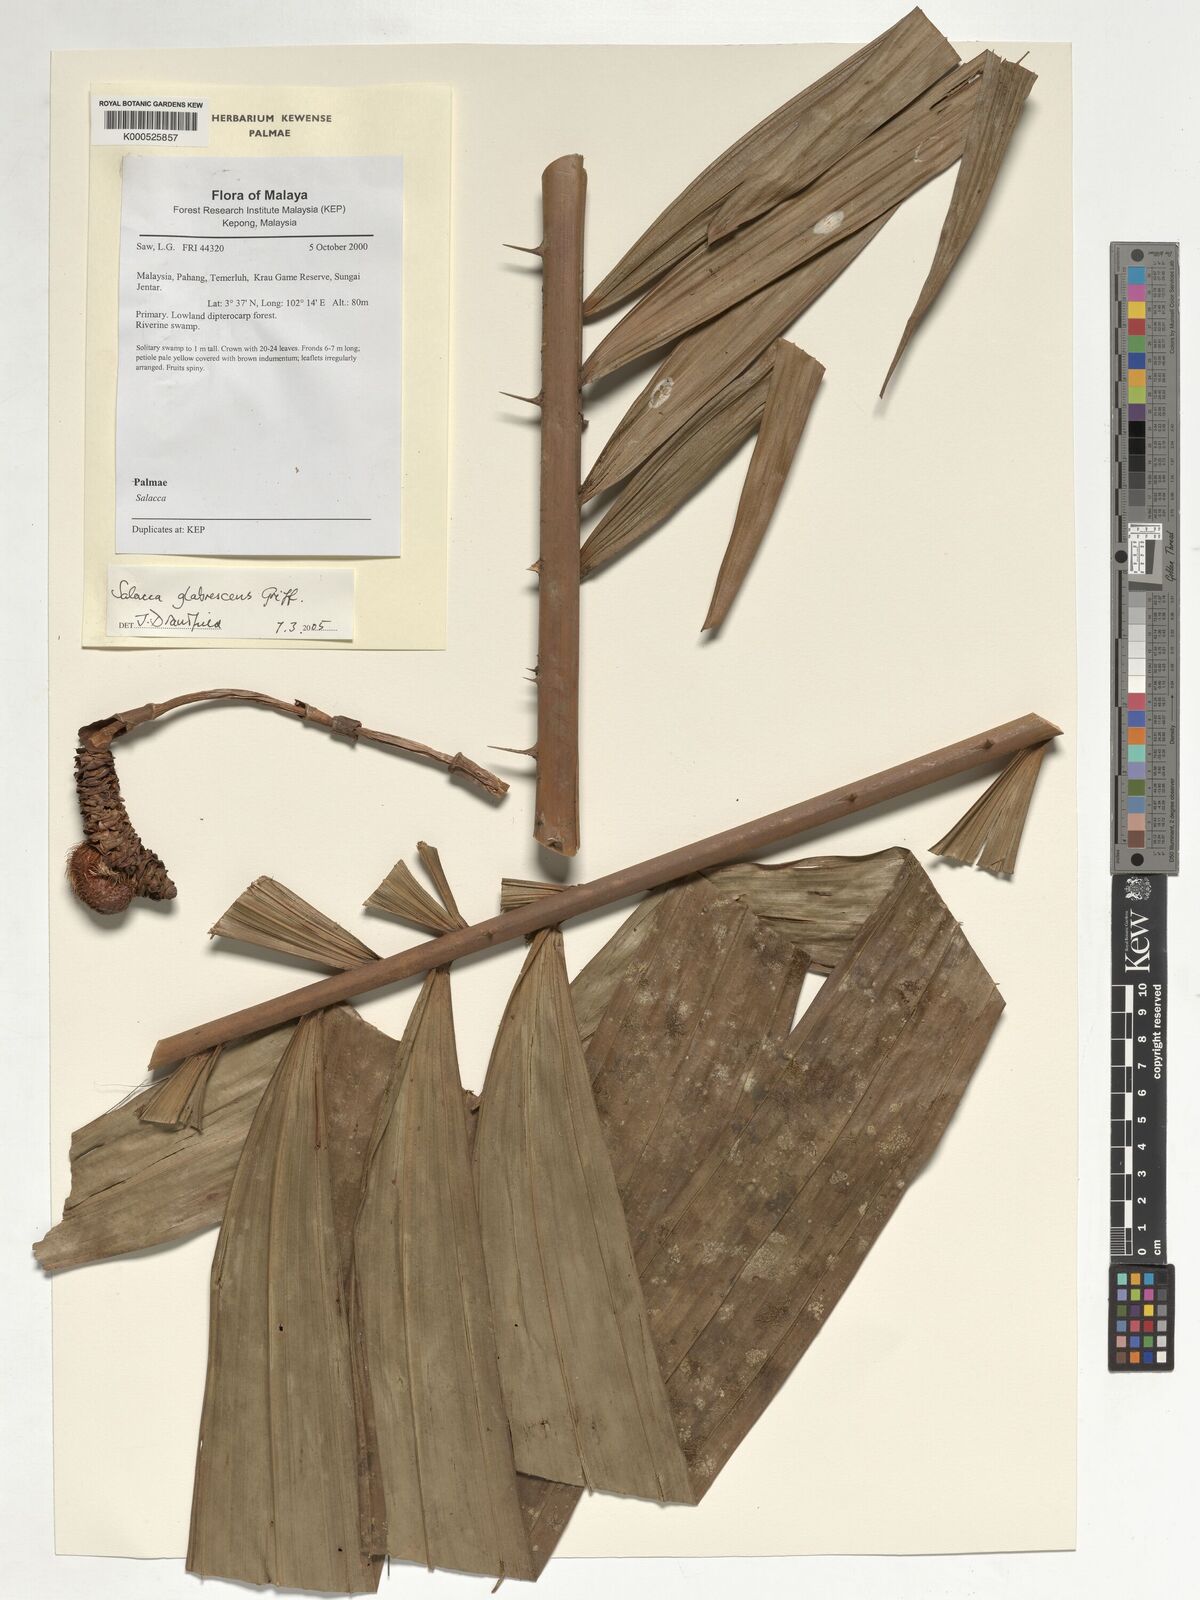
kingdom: Plantae
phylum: Tracheophyta
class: Liliopsida
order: Arecales
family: Arecaceae
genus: Salacca
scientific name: Salacca glabrescens
